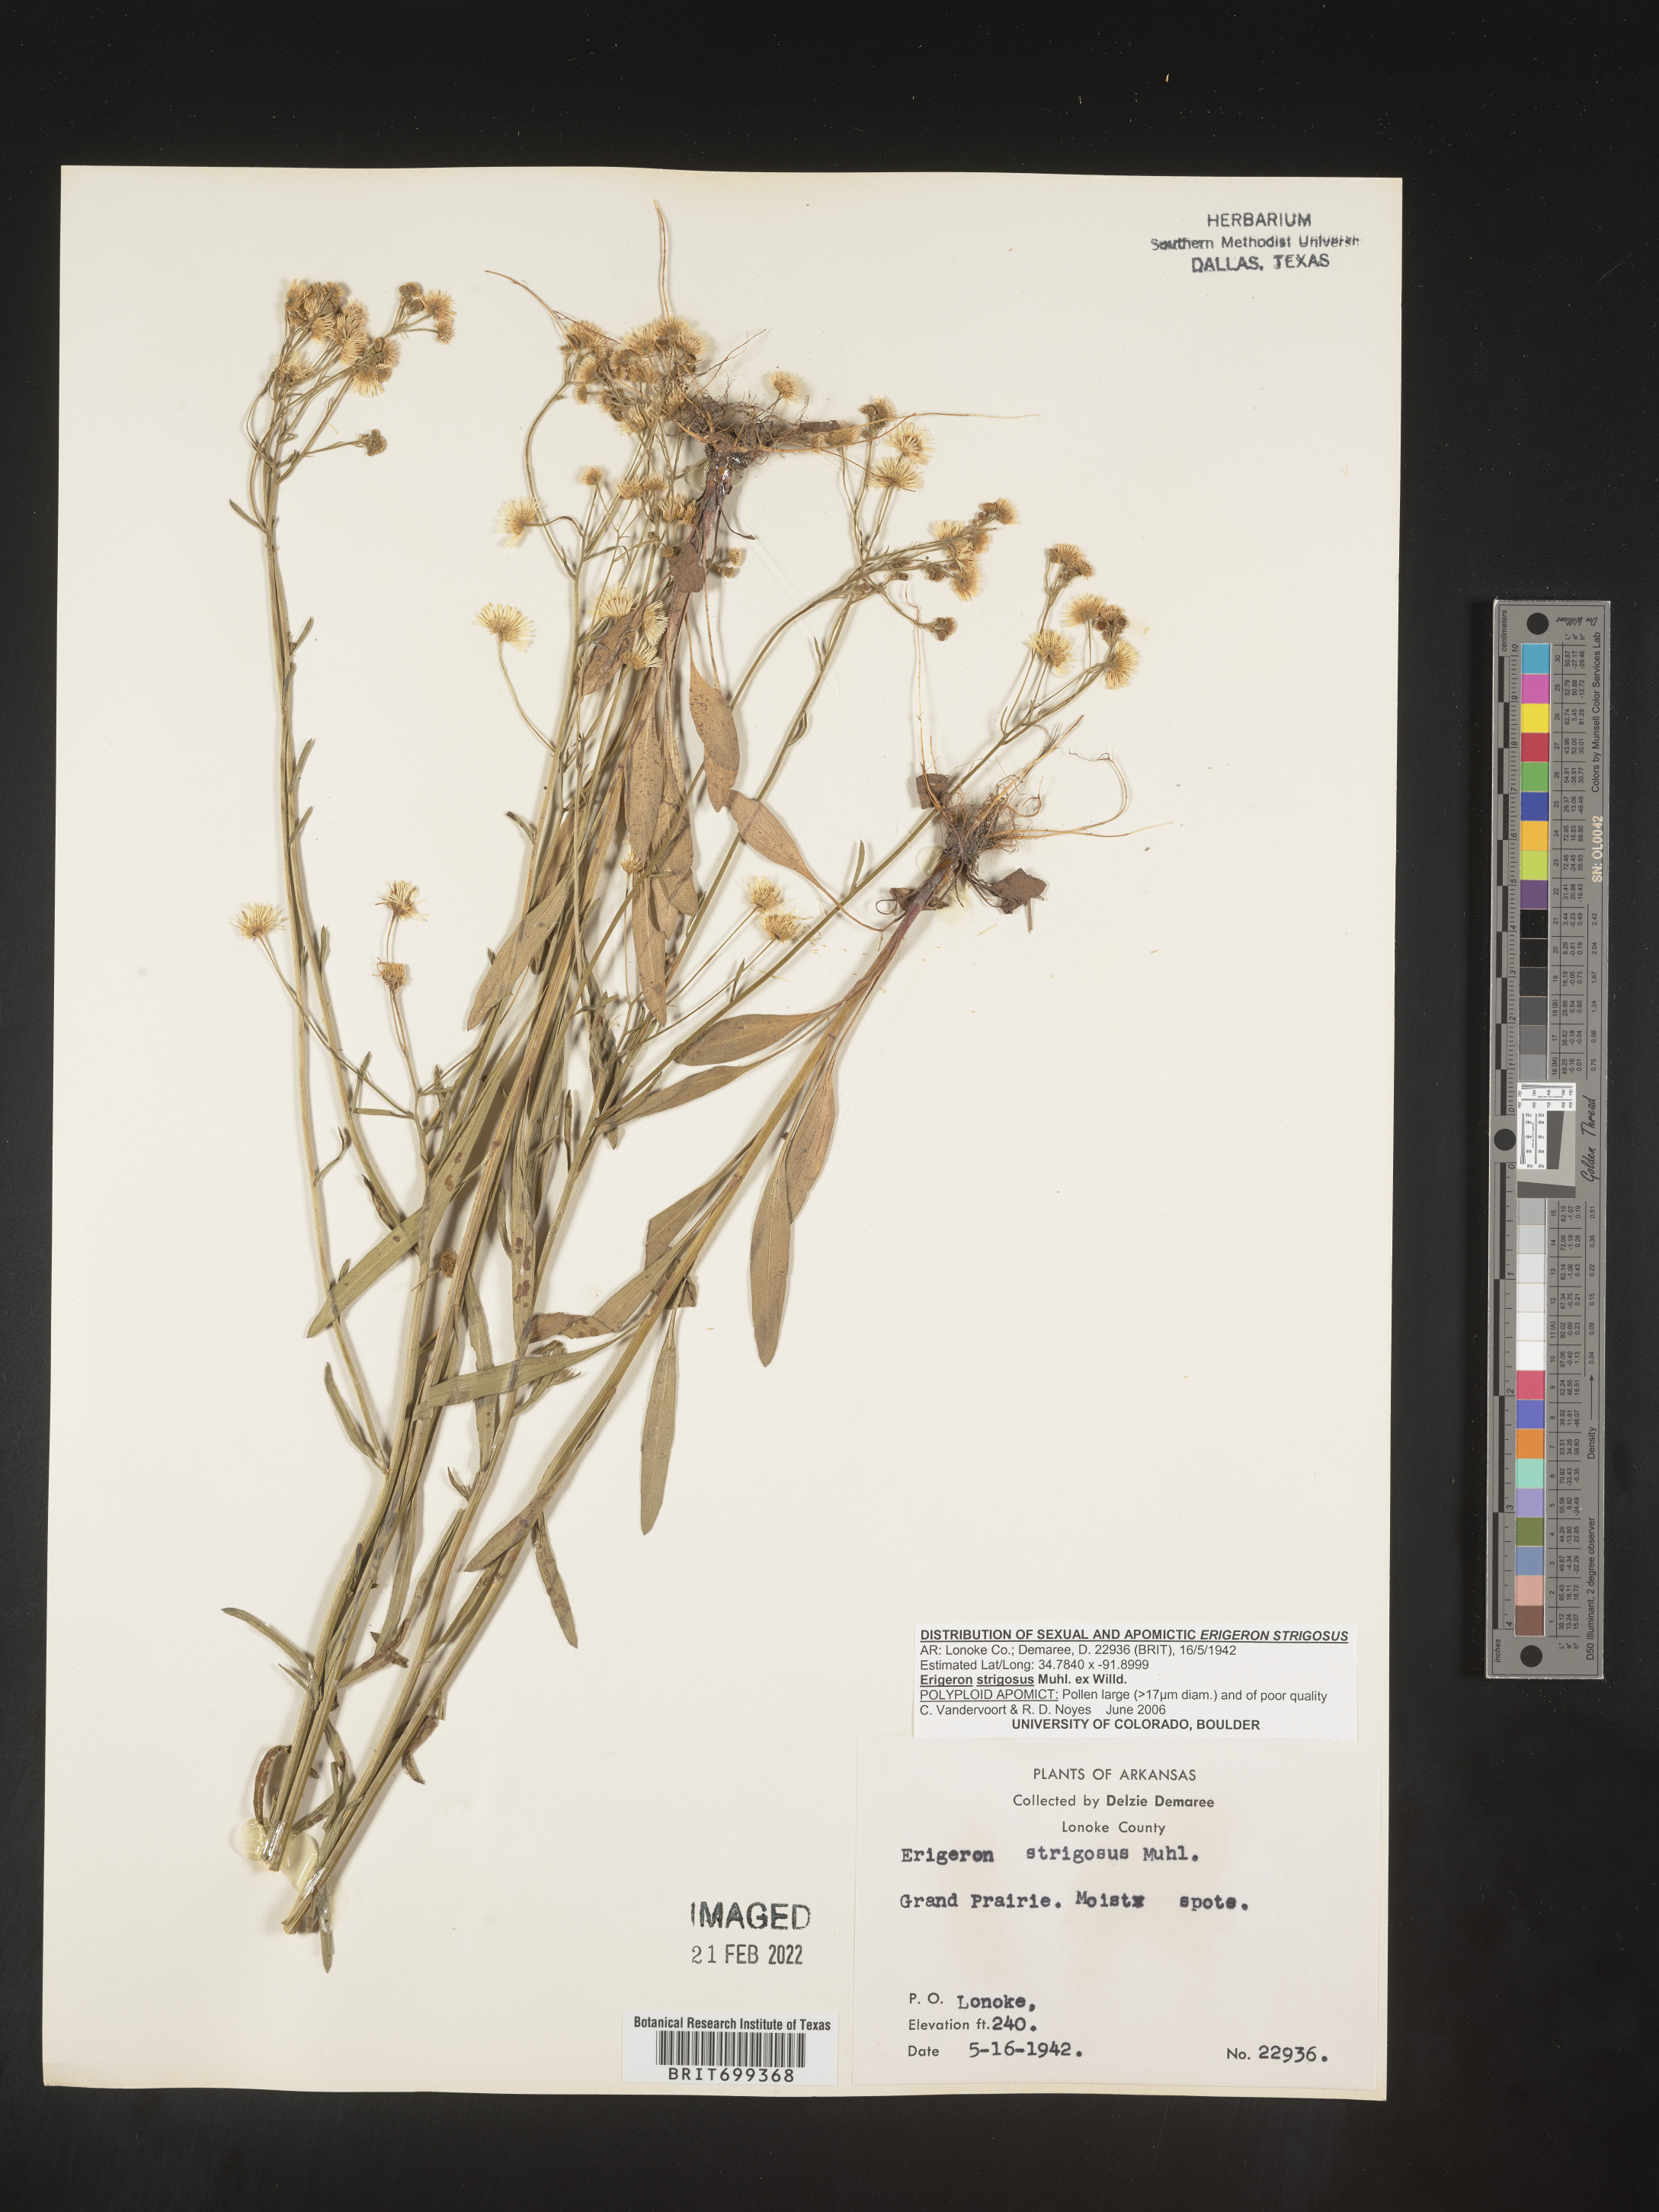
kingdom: Plantae
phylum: Tracheophyta
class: Magnoliopsida
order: Asterales
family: Asteraceae
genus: Erigeron
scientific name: Erigeron strigosus
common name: Common eastern fleabane
